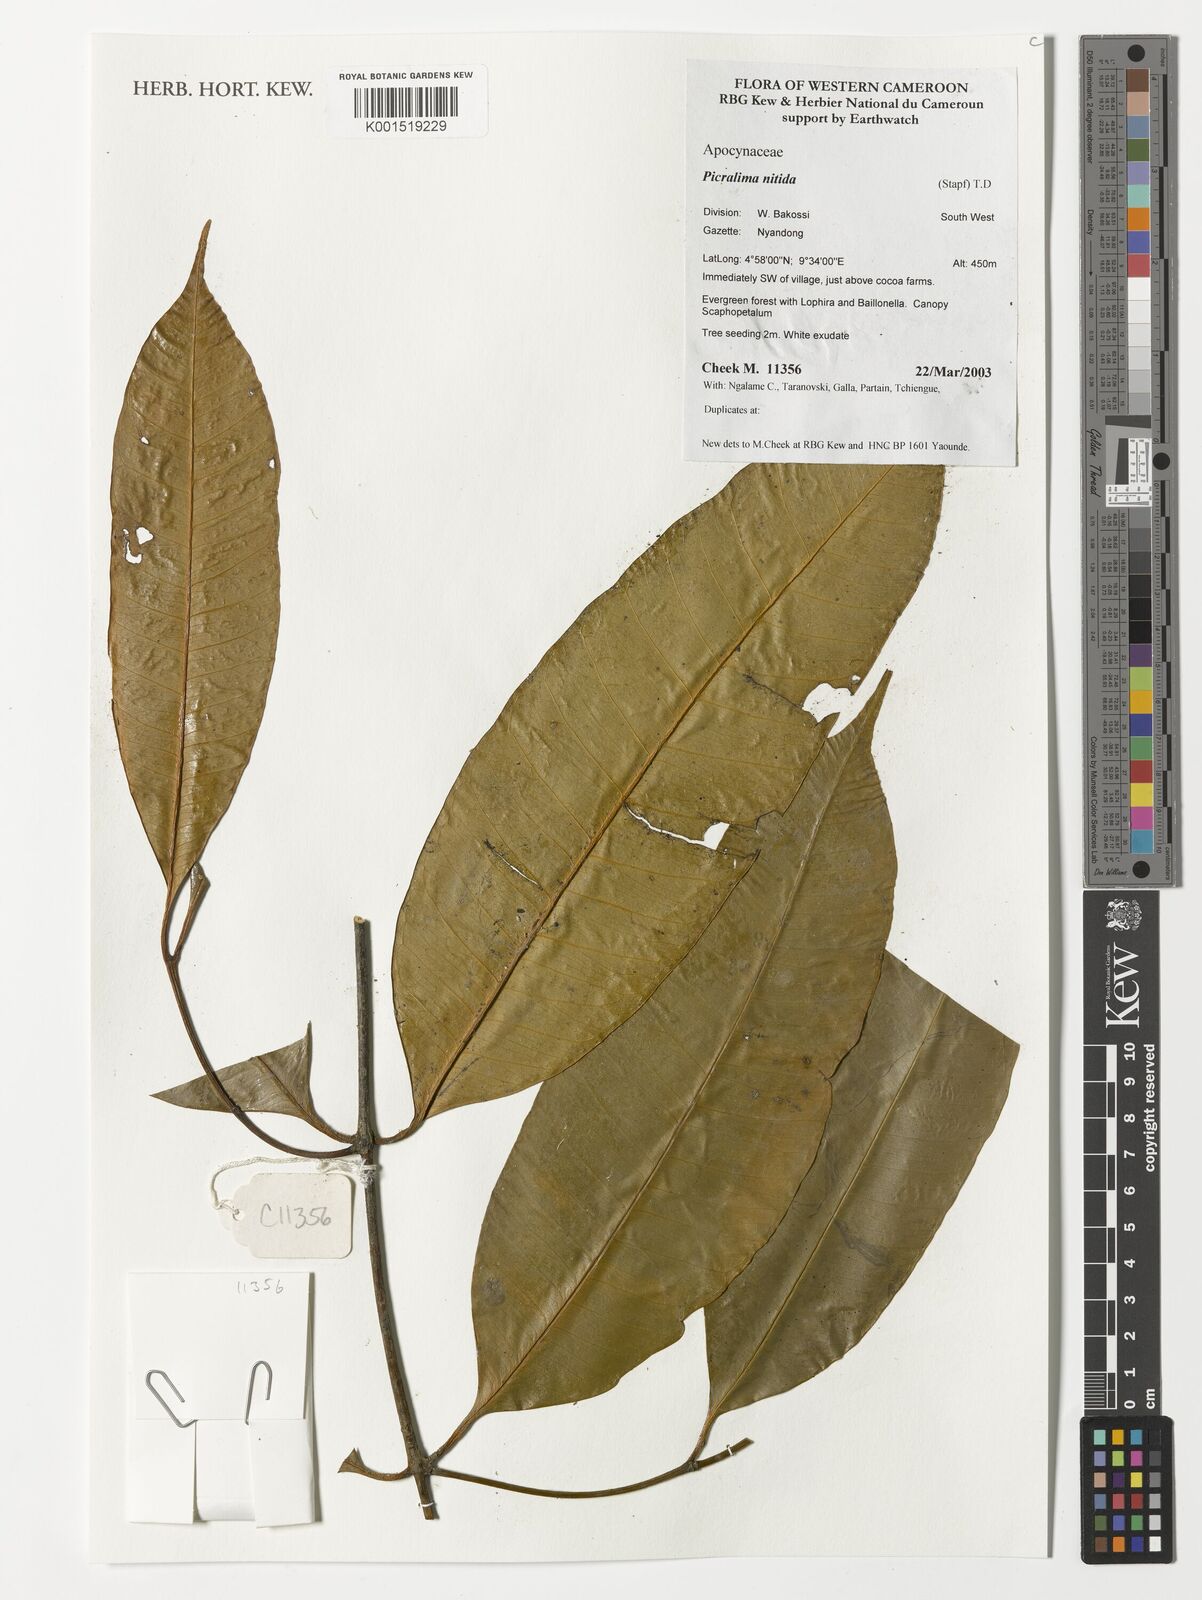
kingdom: Plantae
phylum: Tracheophyta
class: Magnoliopsida
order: Gentianales
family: Apocynaceae
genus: Picralima
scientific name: Picralima nitida
